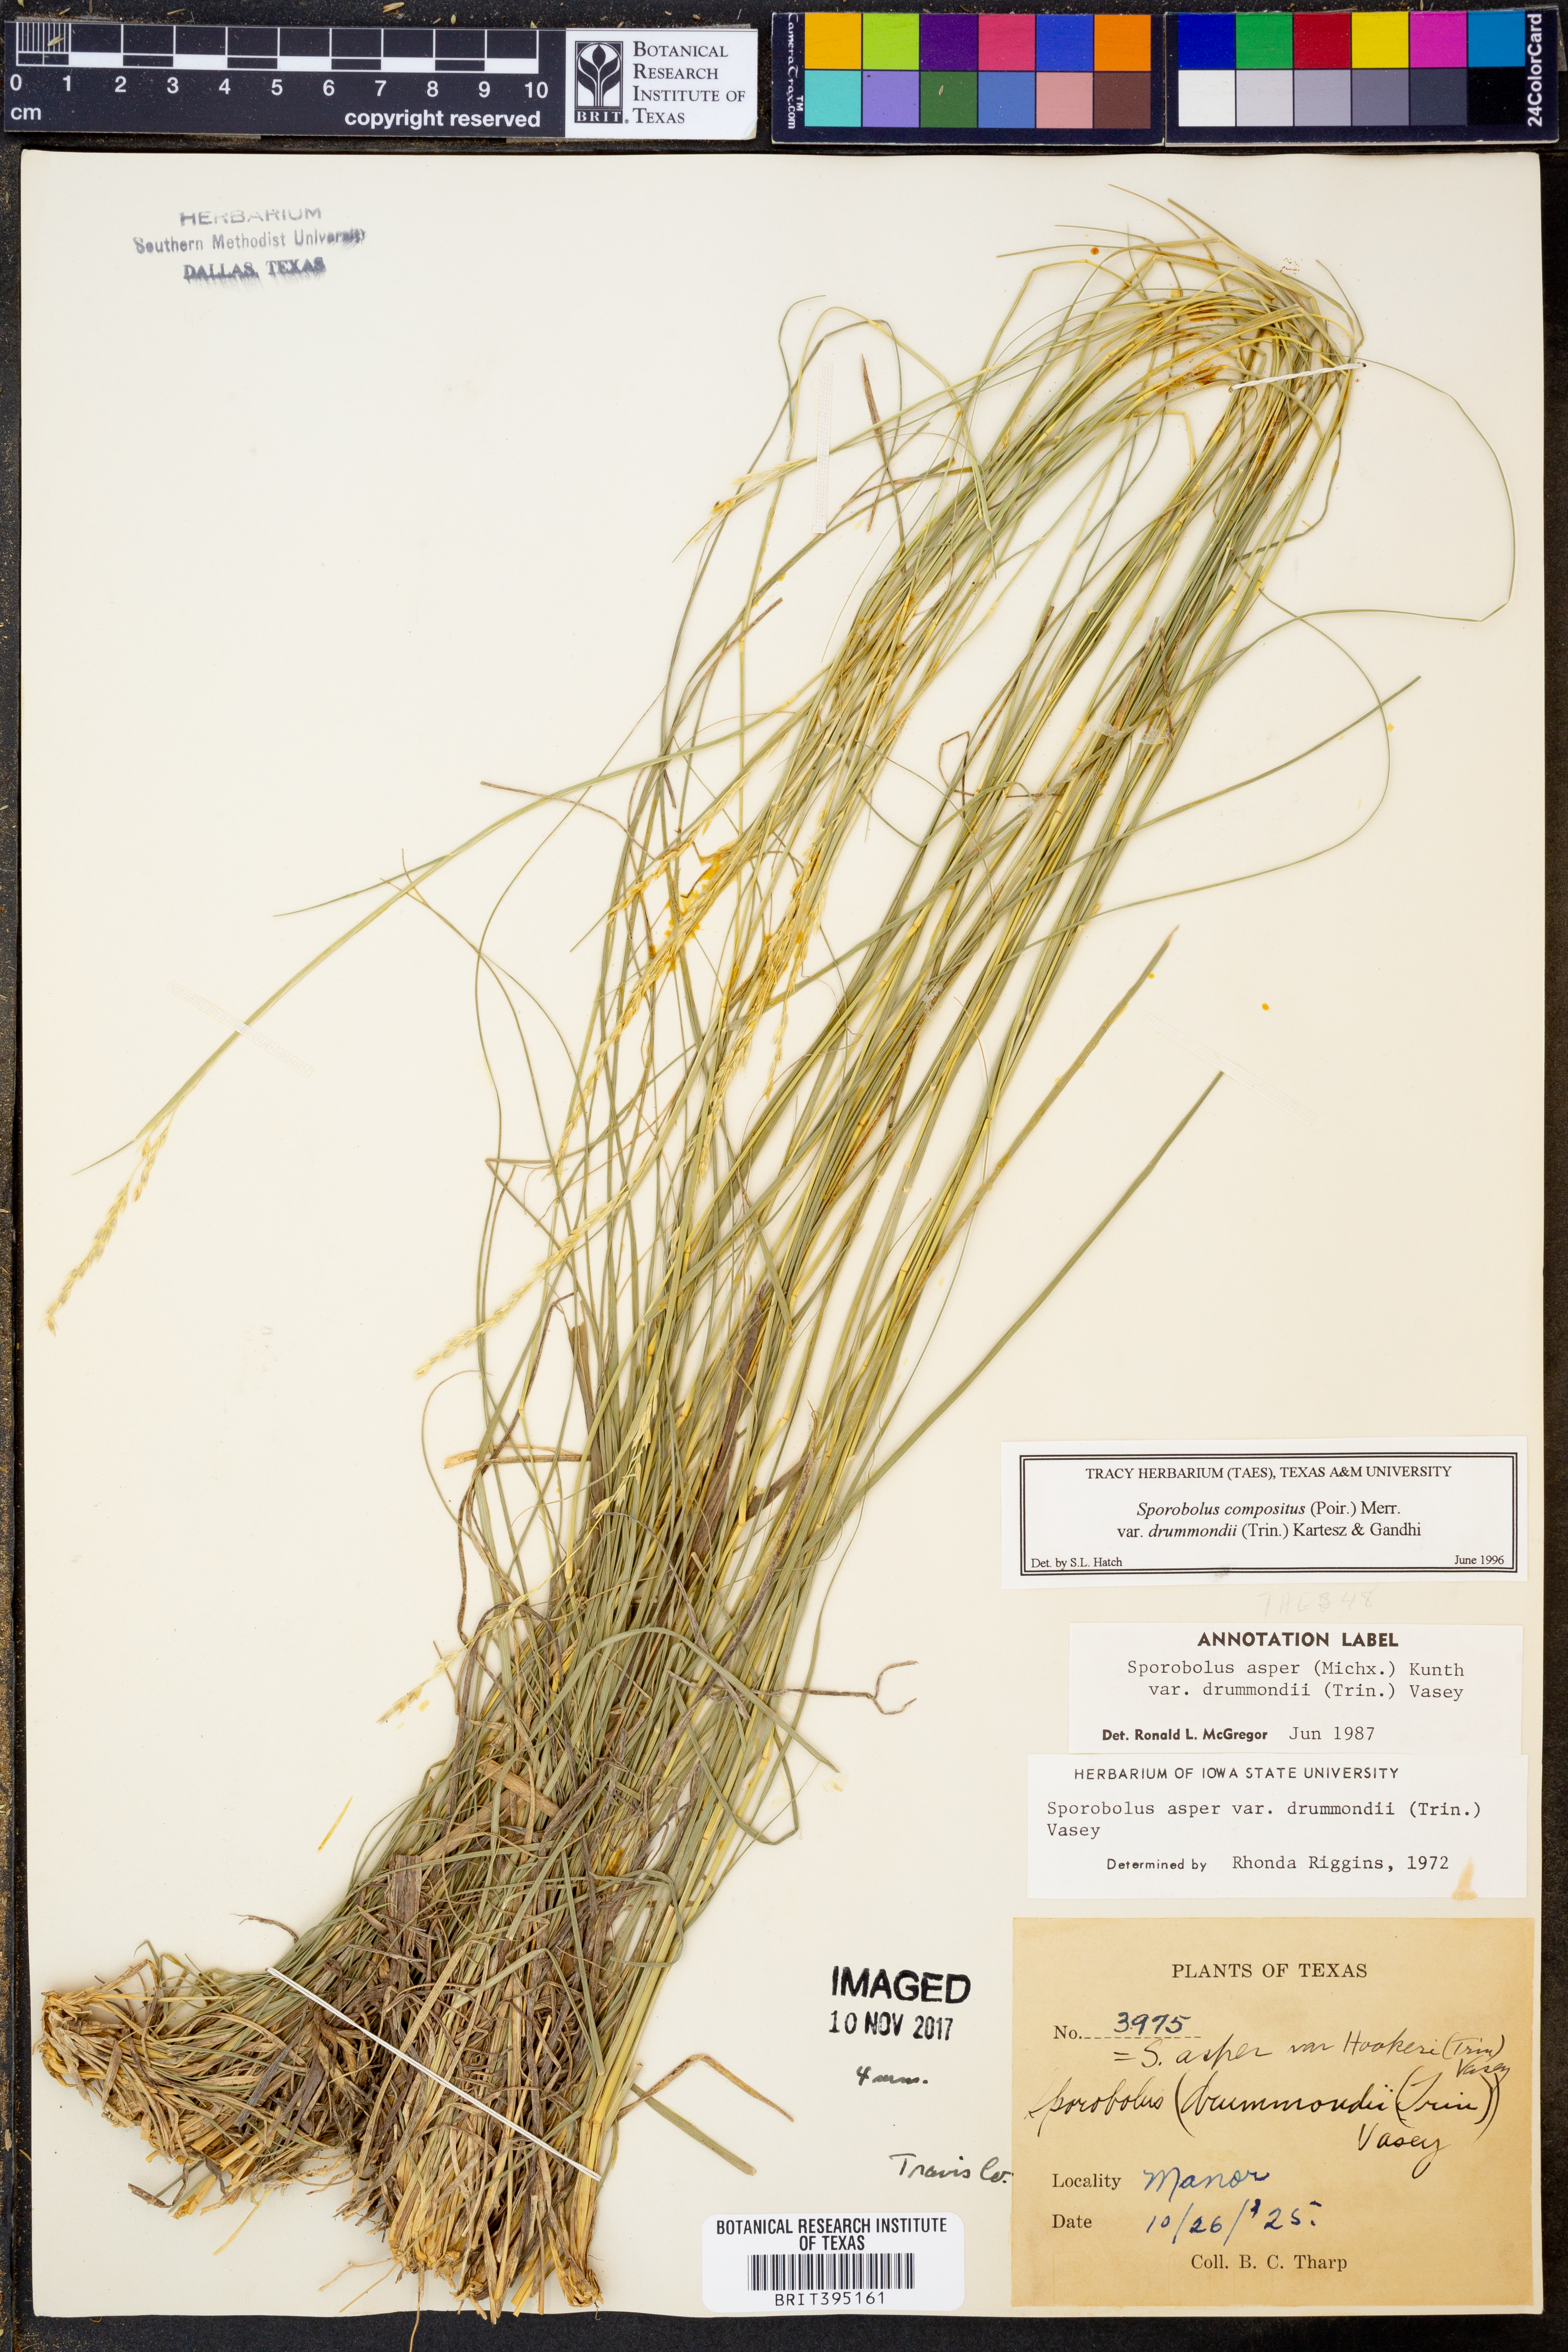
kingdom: Plantae
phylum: Tracheophyta
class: Liliopsida
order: Poales
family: Poaceae
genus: Sporobolus
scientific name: Sporobolus compositus
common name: Rough dropseed
